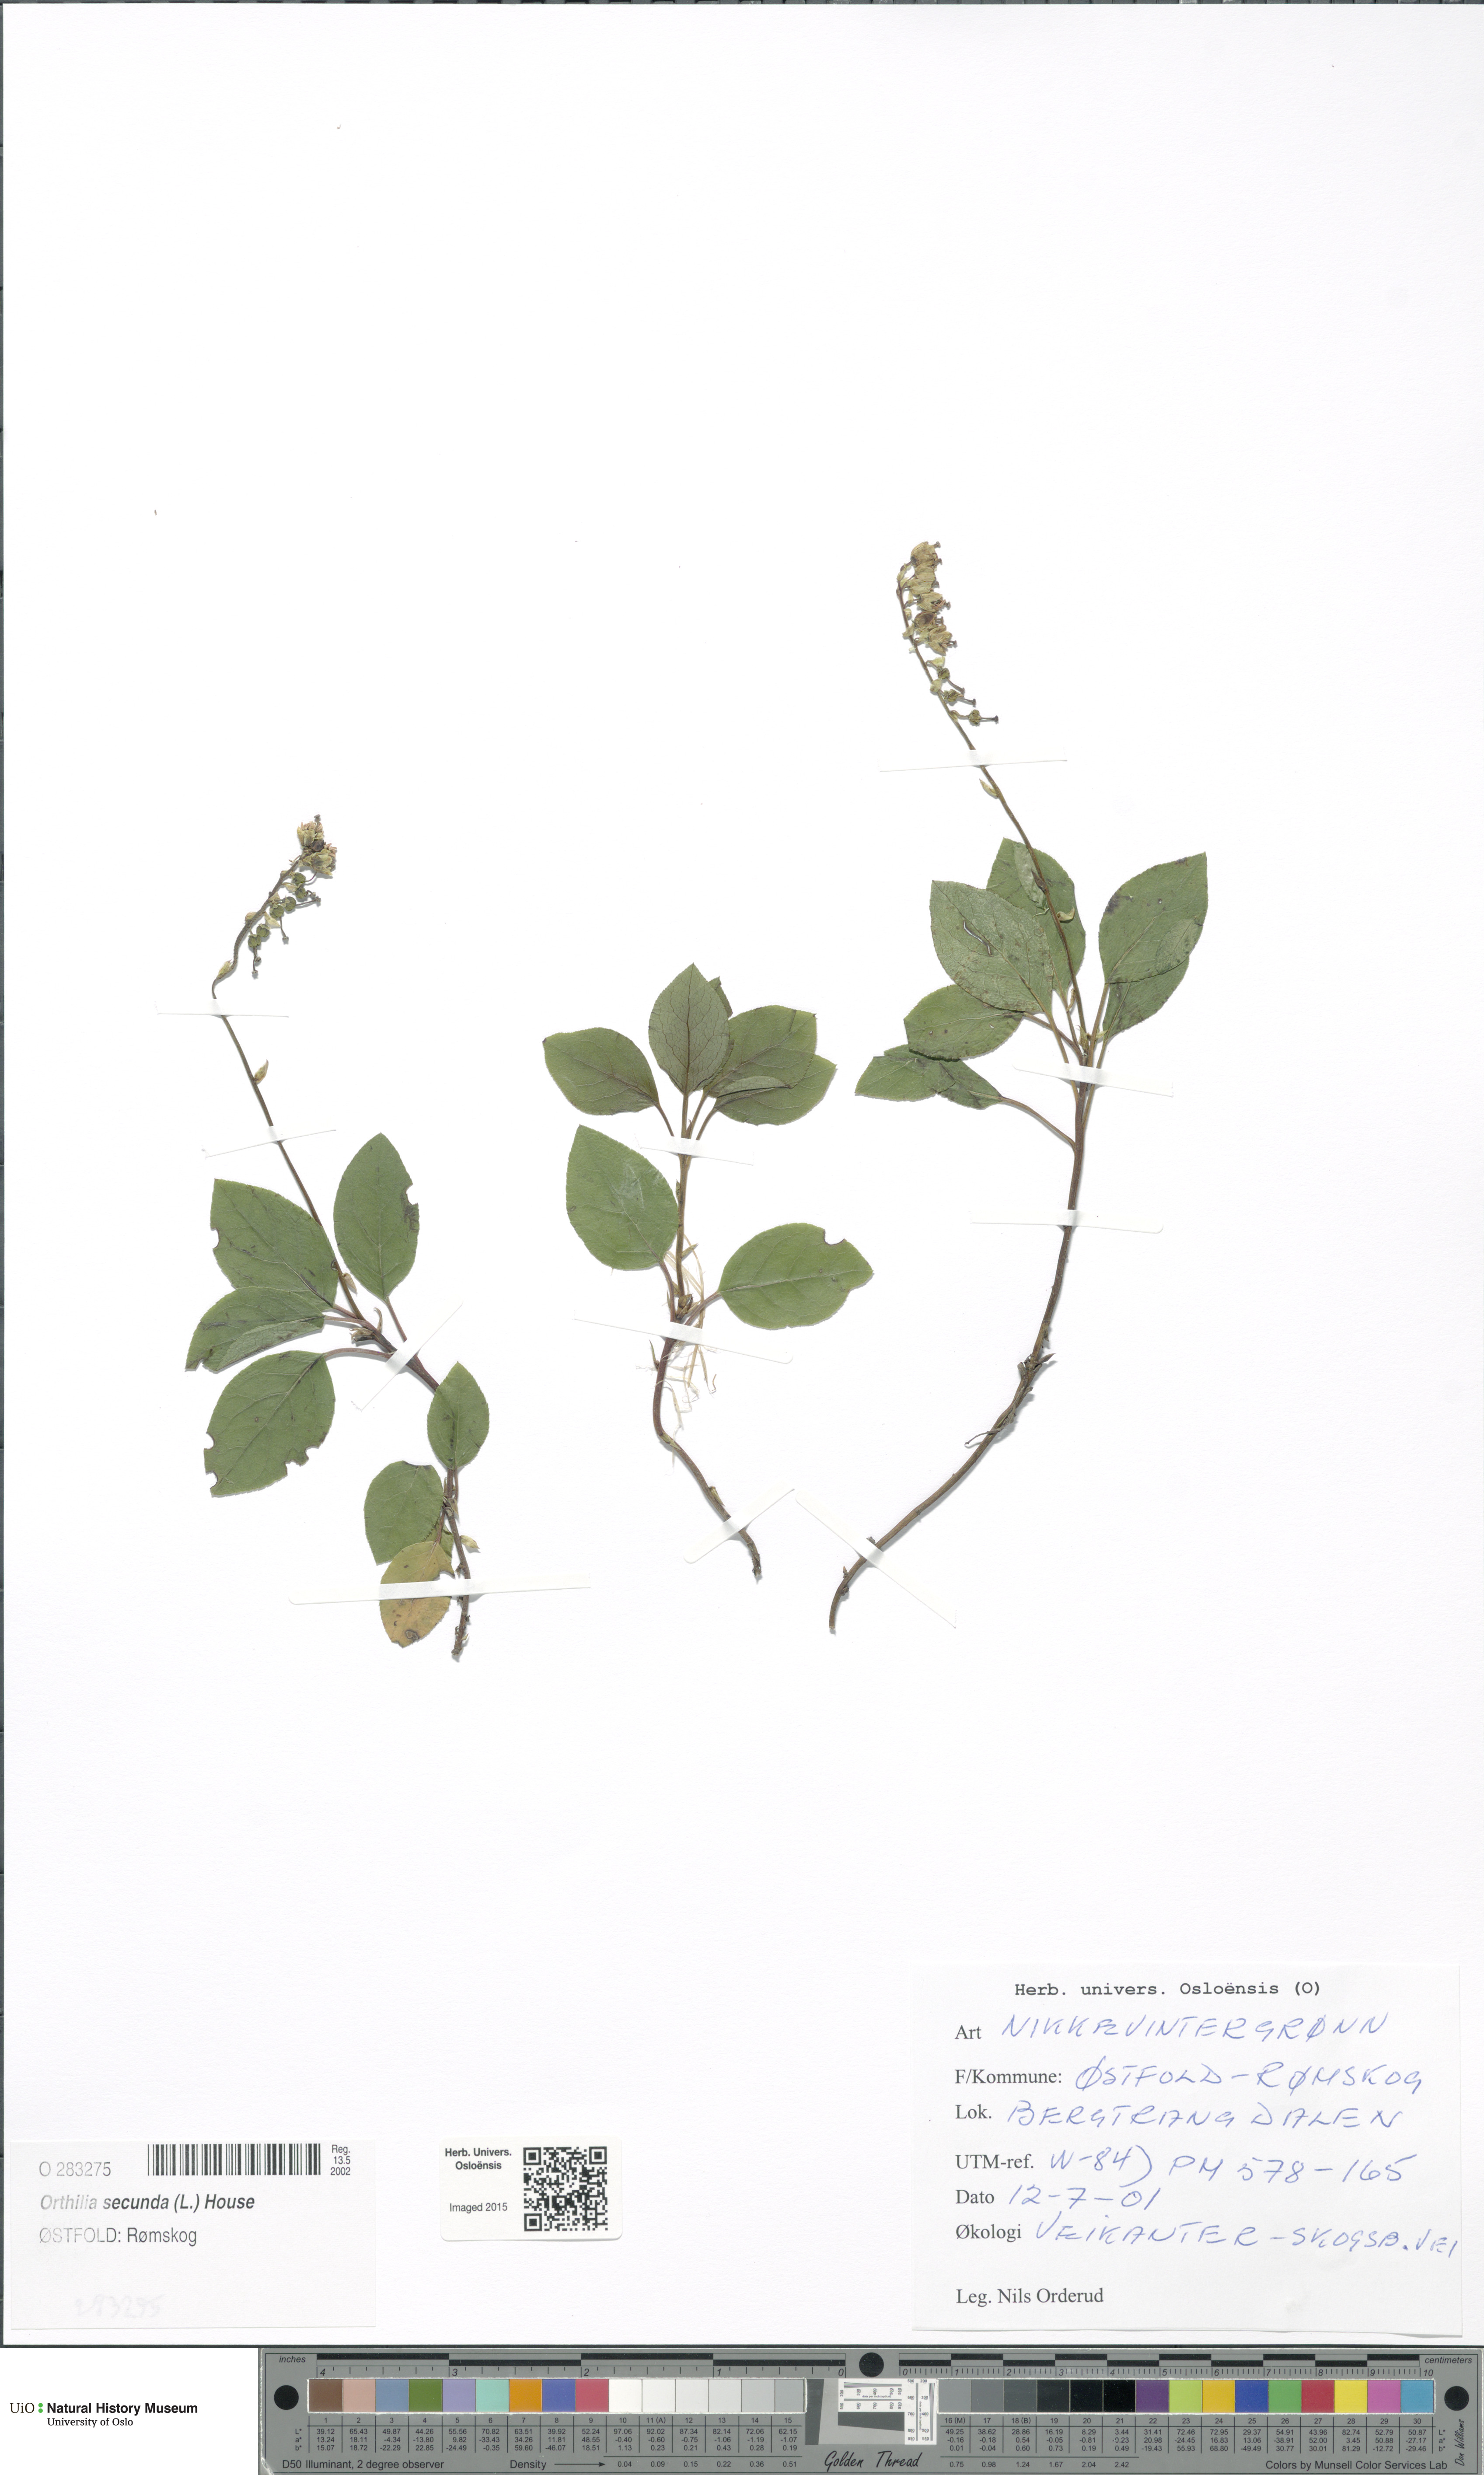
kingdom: Plantae
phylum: Tracheophyta
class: Magnoliopsida
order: Ericales
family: Ericaceae
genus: Orthilia
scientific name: Orthilia secunda
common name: One-sided orthilia
